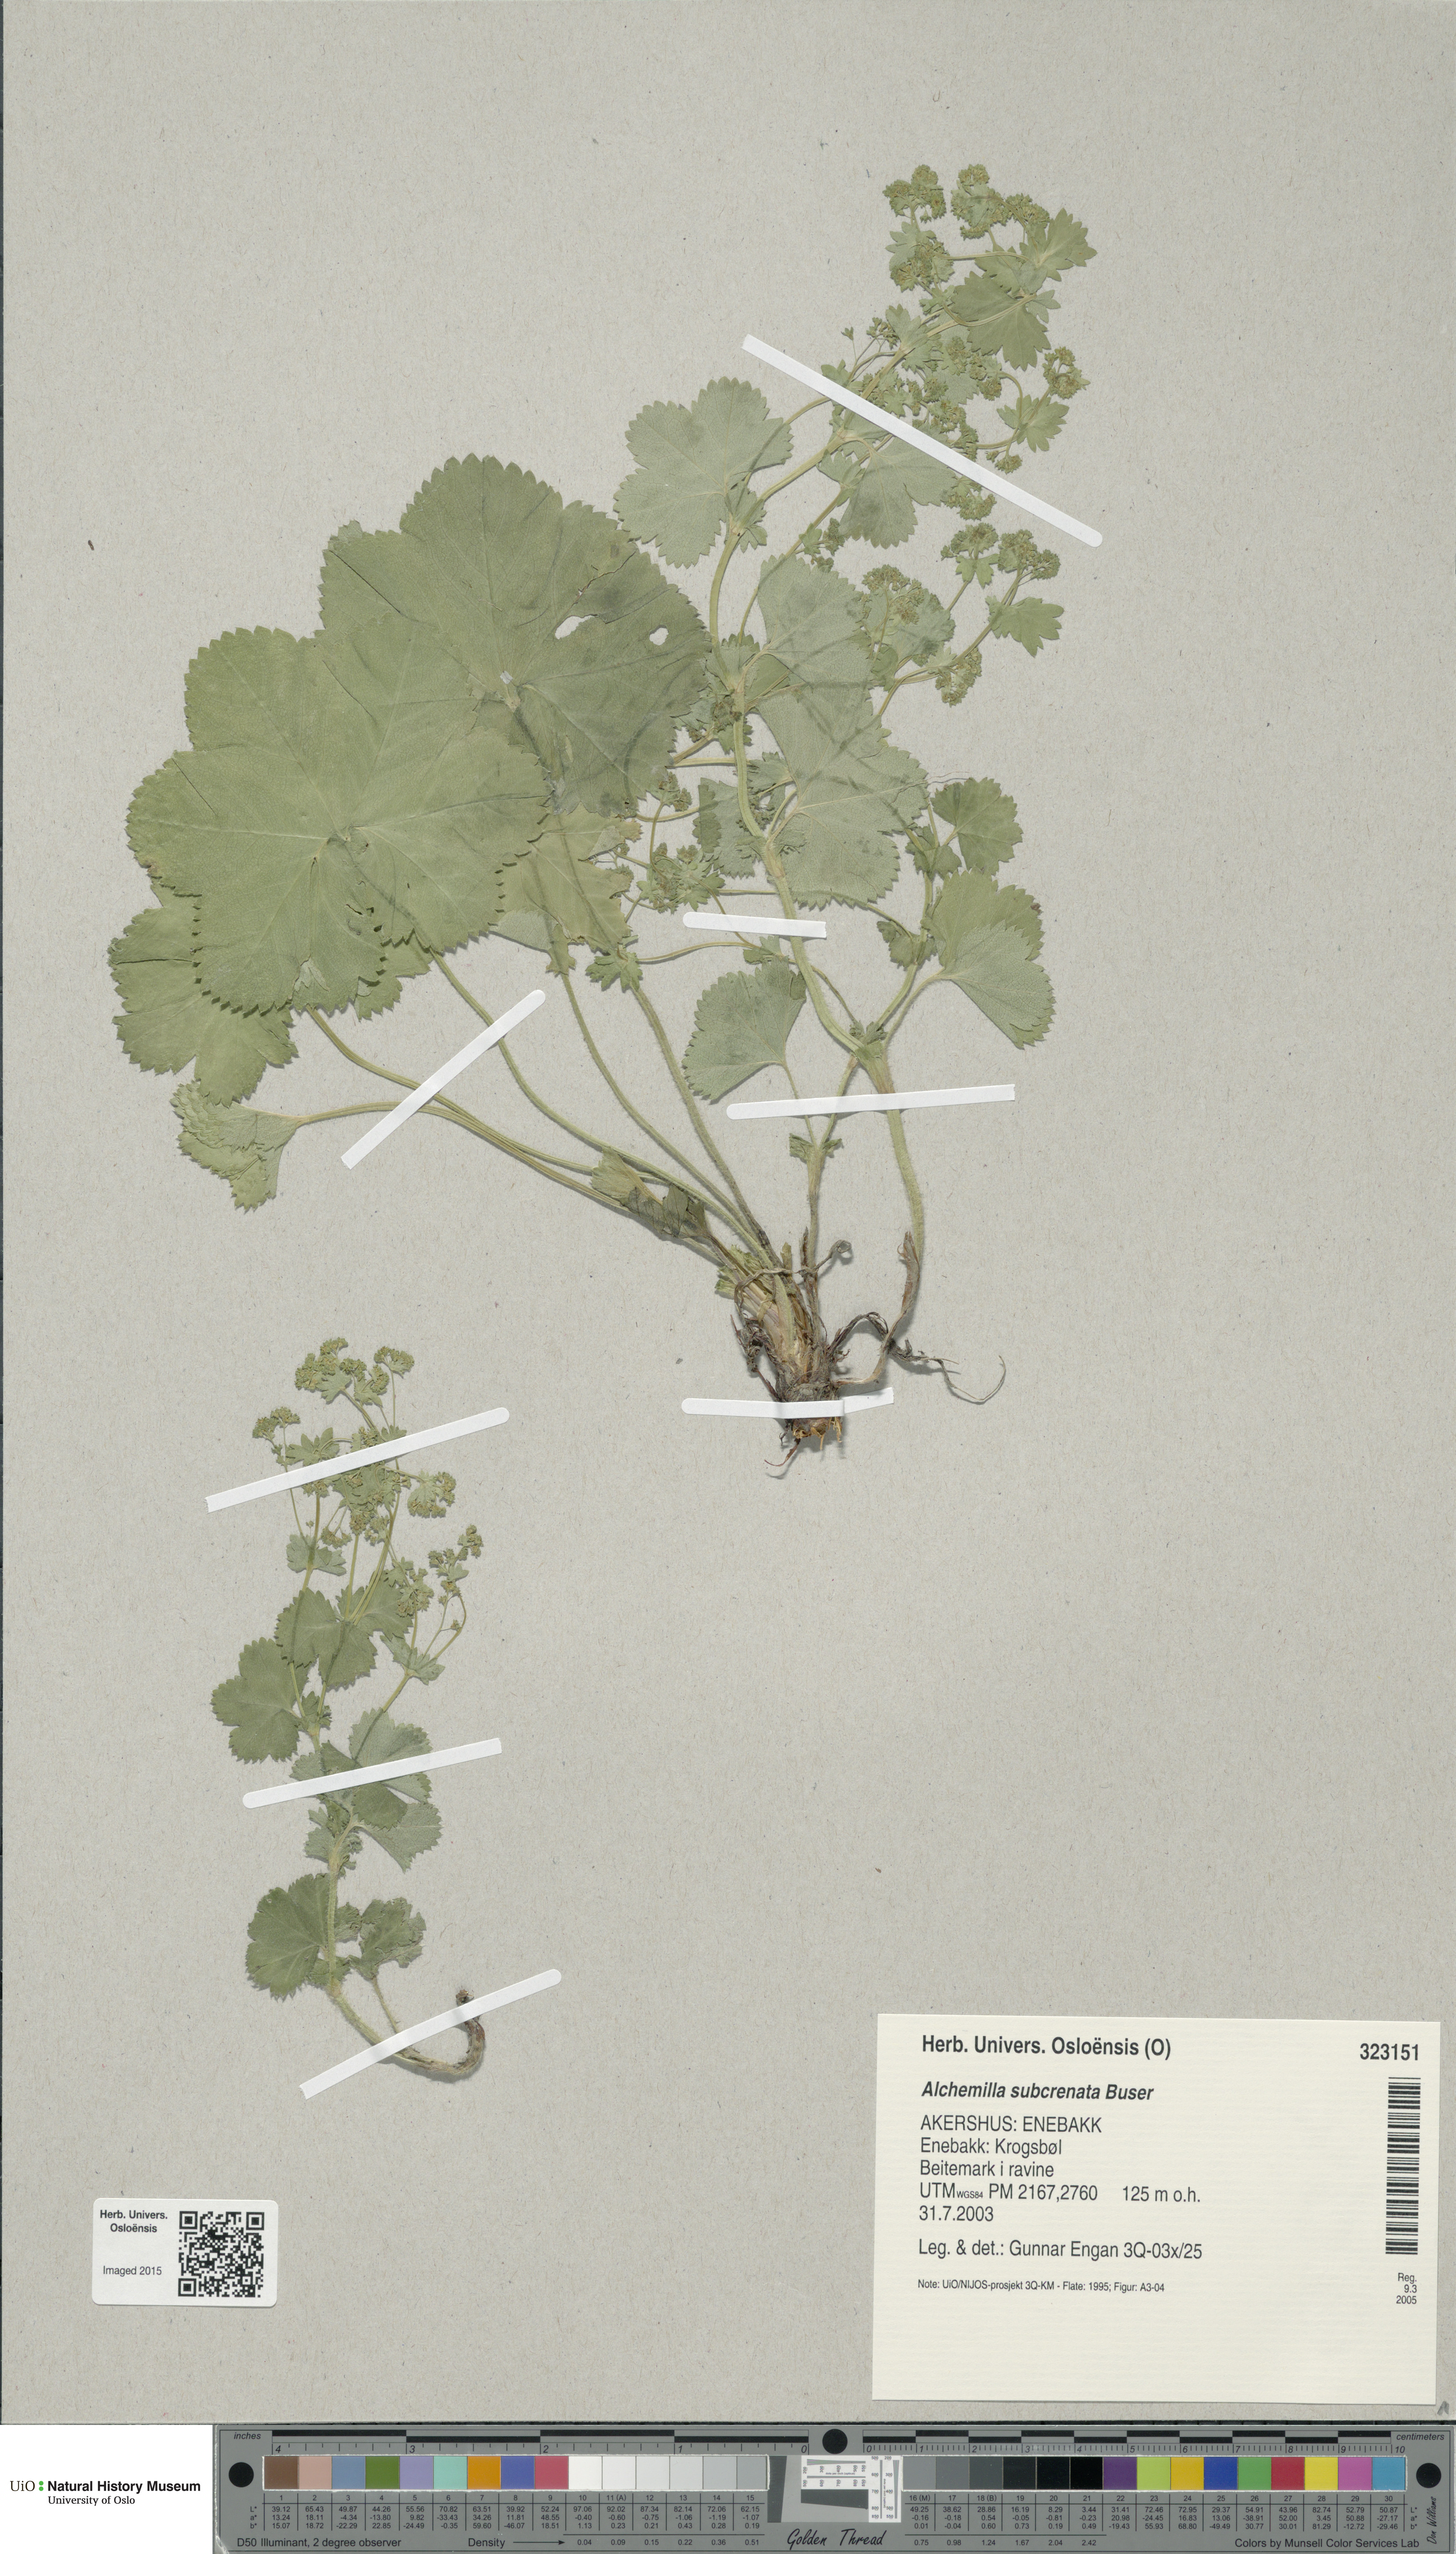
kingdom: Plantae
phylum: Tracheophyta
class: Magnoliopsida
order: Rosales
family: Rosaceae
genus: Alchemilla
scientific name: Alchemilla subcrenata
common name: Broadtooth lady's mantle
